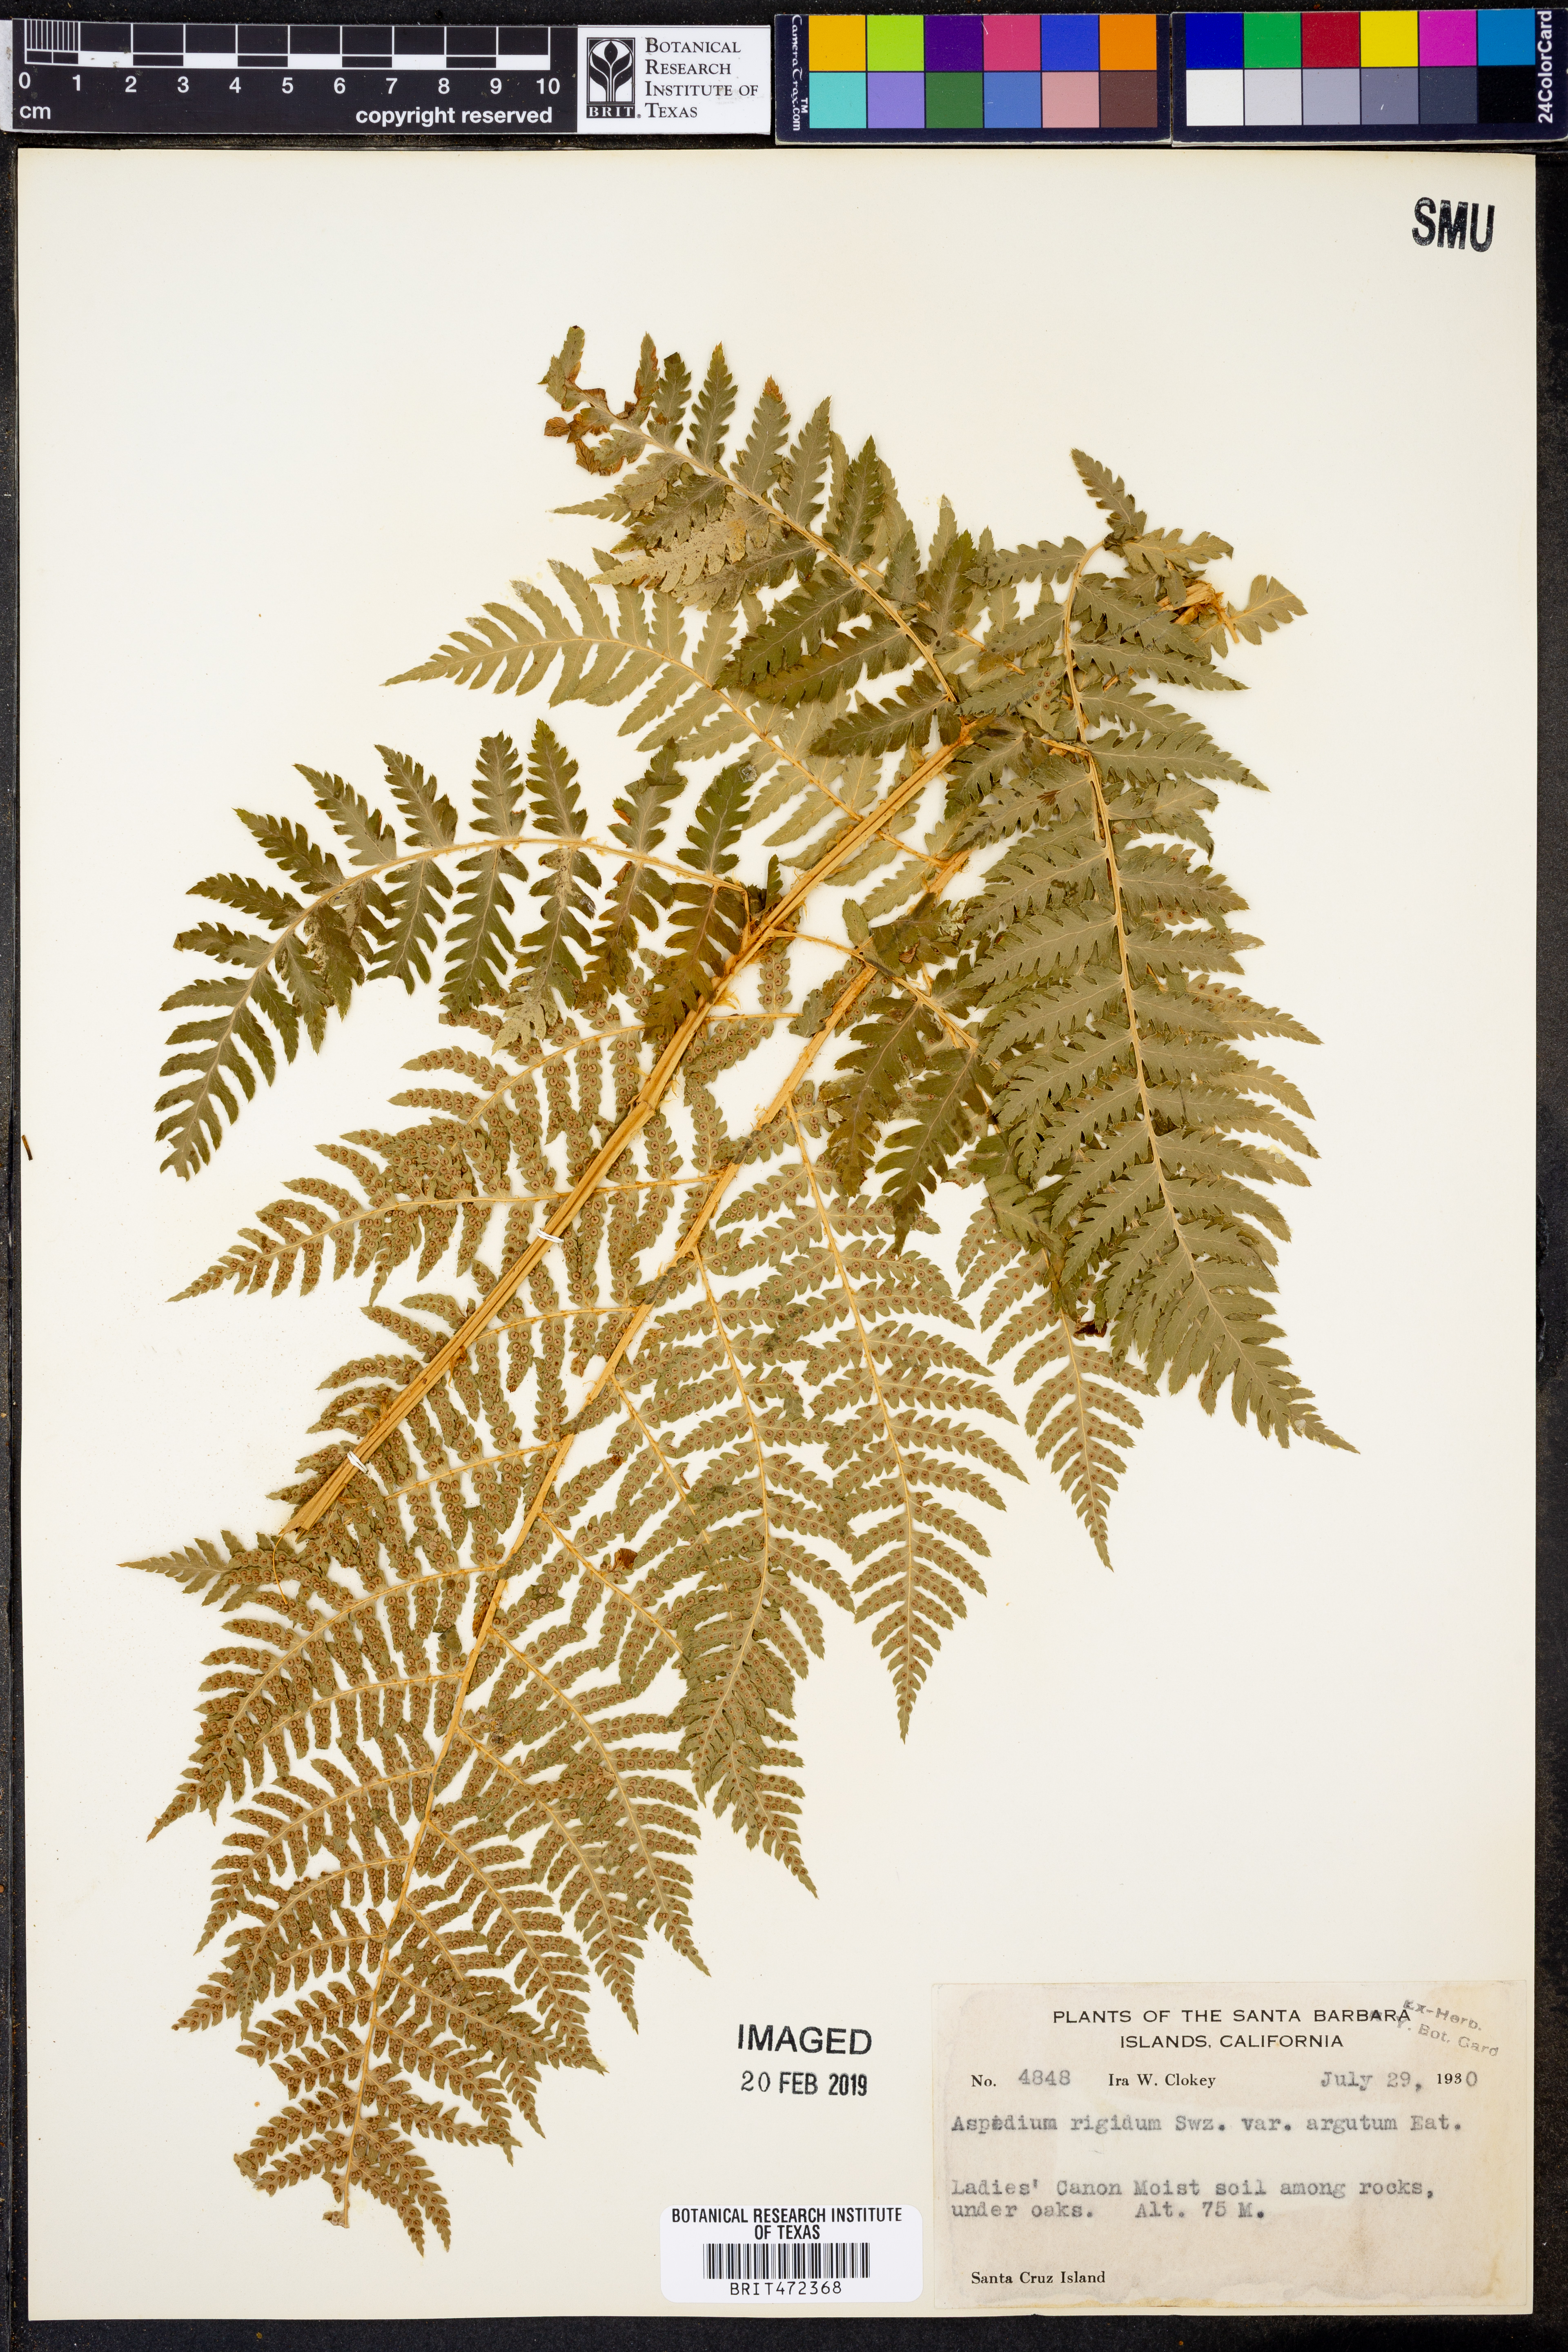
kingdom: Plantae
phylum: Tracheophyta
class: Polypodiopsida
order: Polypodiales
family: Dryopteridaceae
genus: Dryopteris
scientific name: Dryopteris villarii
